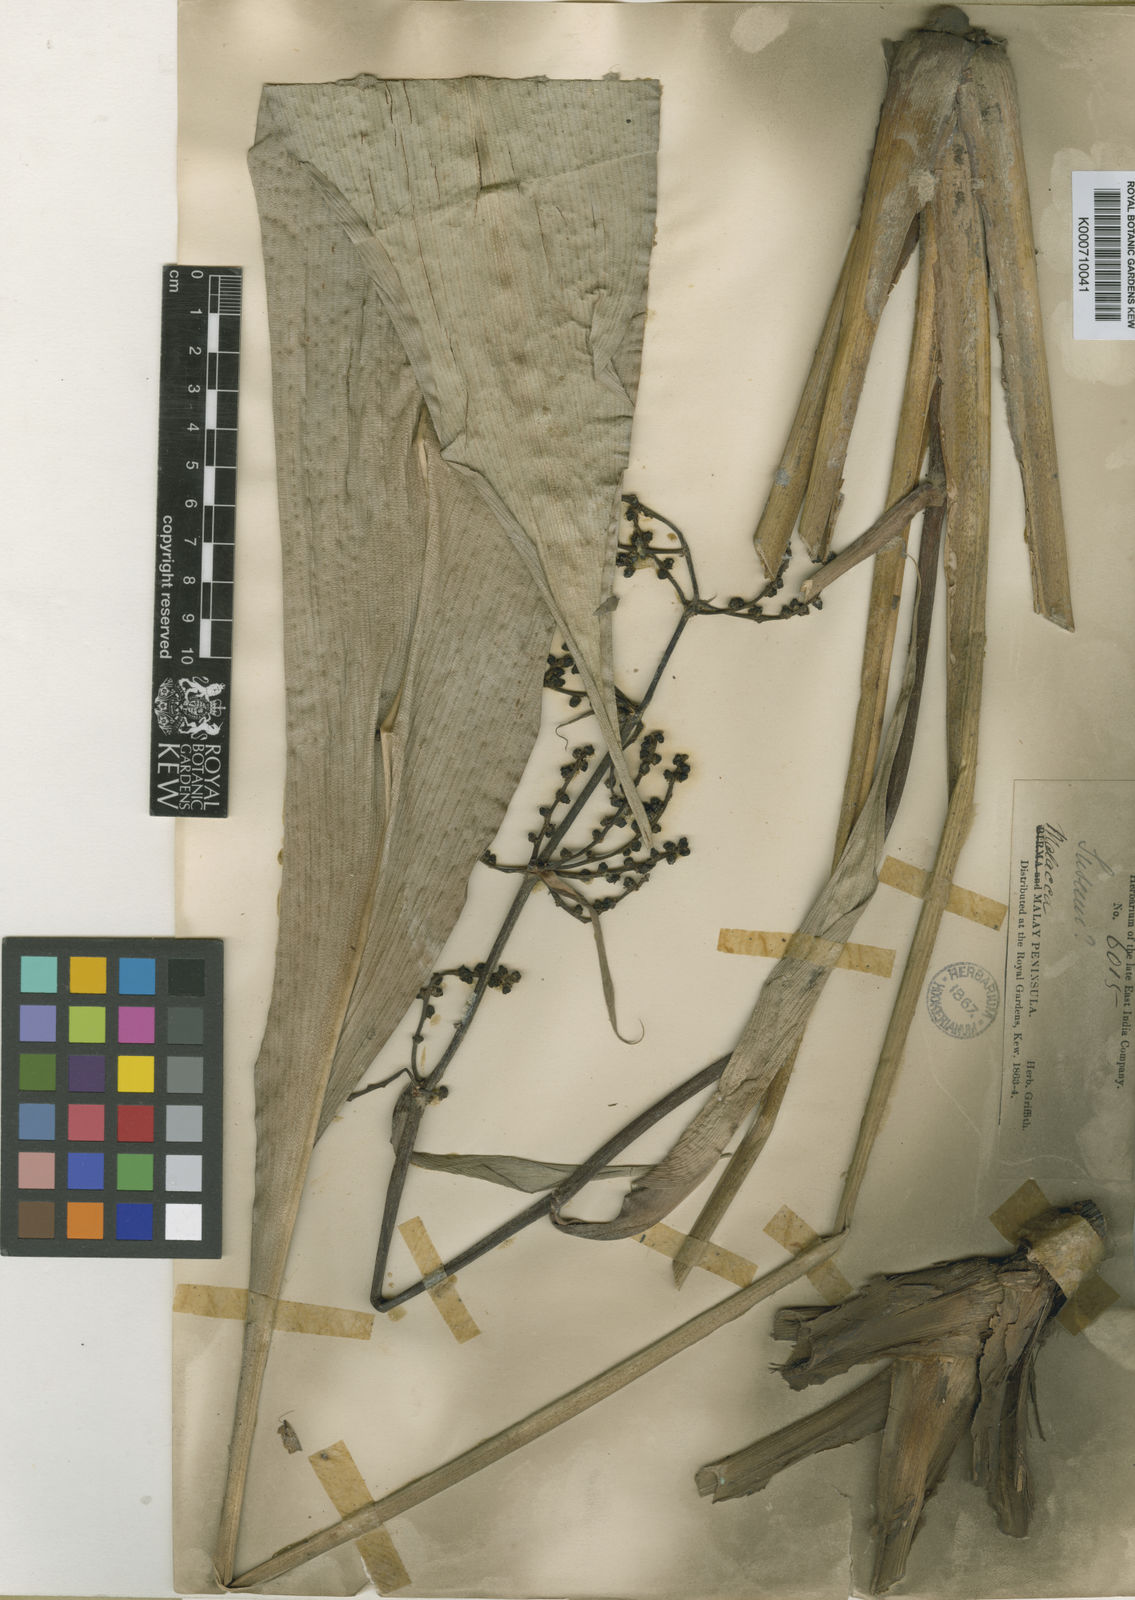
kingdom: Plantae
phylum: Tracheophyta
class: Liliopsida
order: Commelinales
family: Hanguanaceae
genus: Hanguana
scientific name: Hanguana malayana
